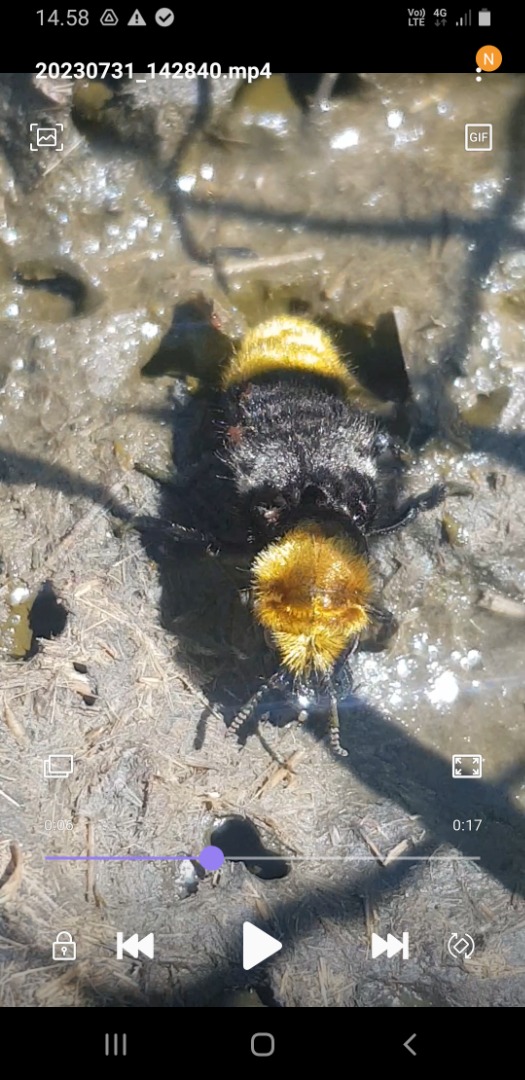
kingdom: Animalia
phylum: Arthropoda
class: Insecta
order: Coleoptera
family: Staphylinidae
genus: Emus
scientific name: Emus hirtus
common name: Humlerovbille
